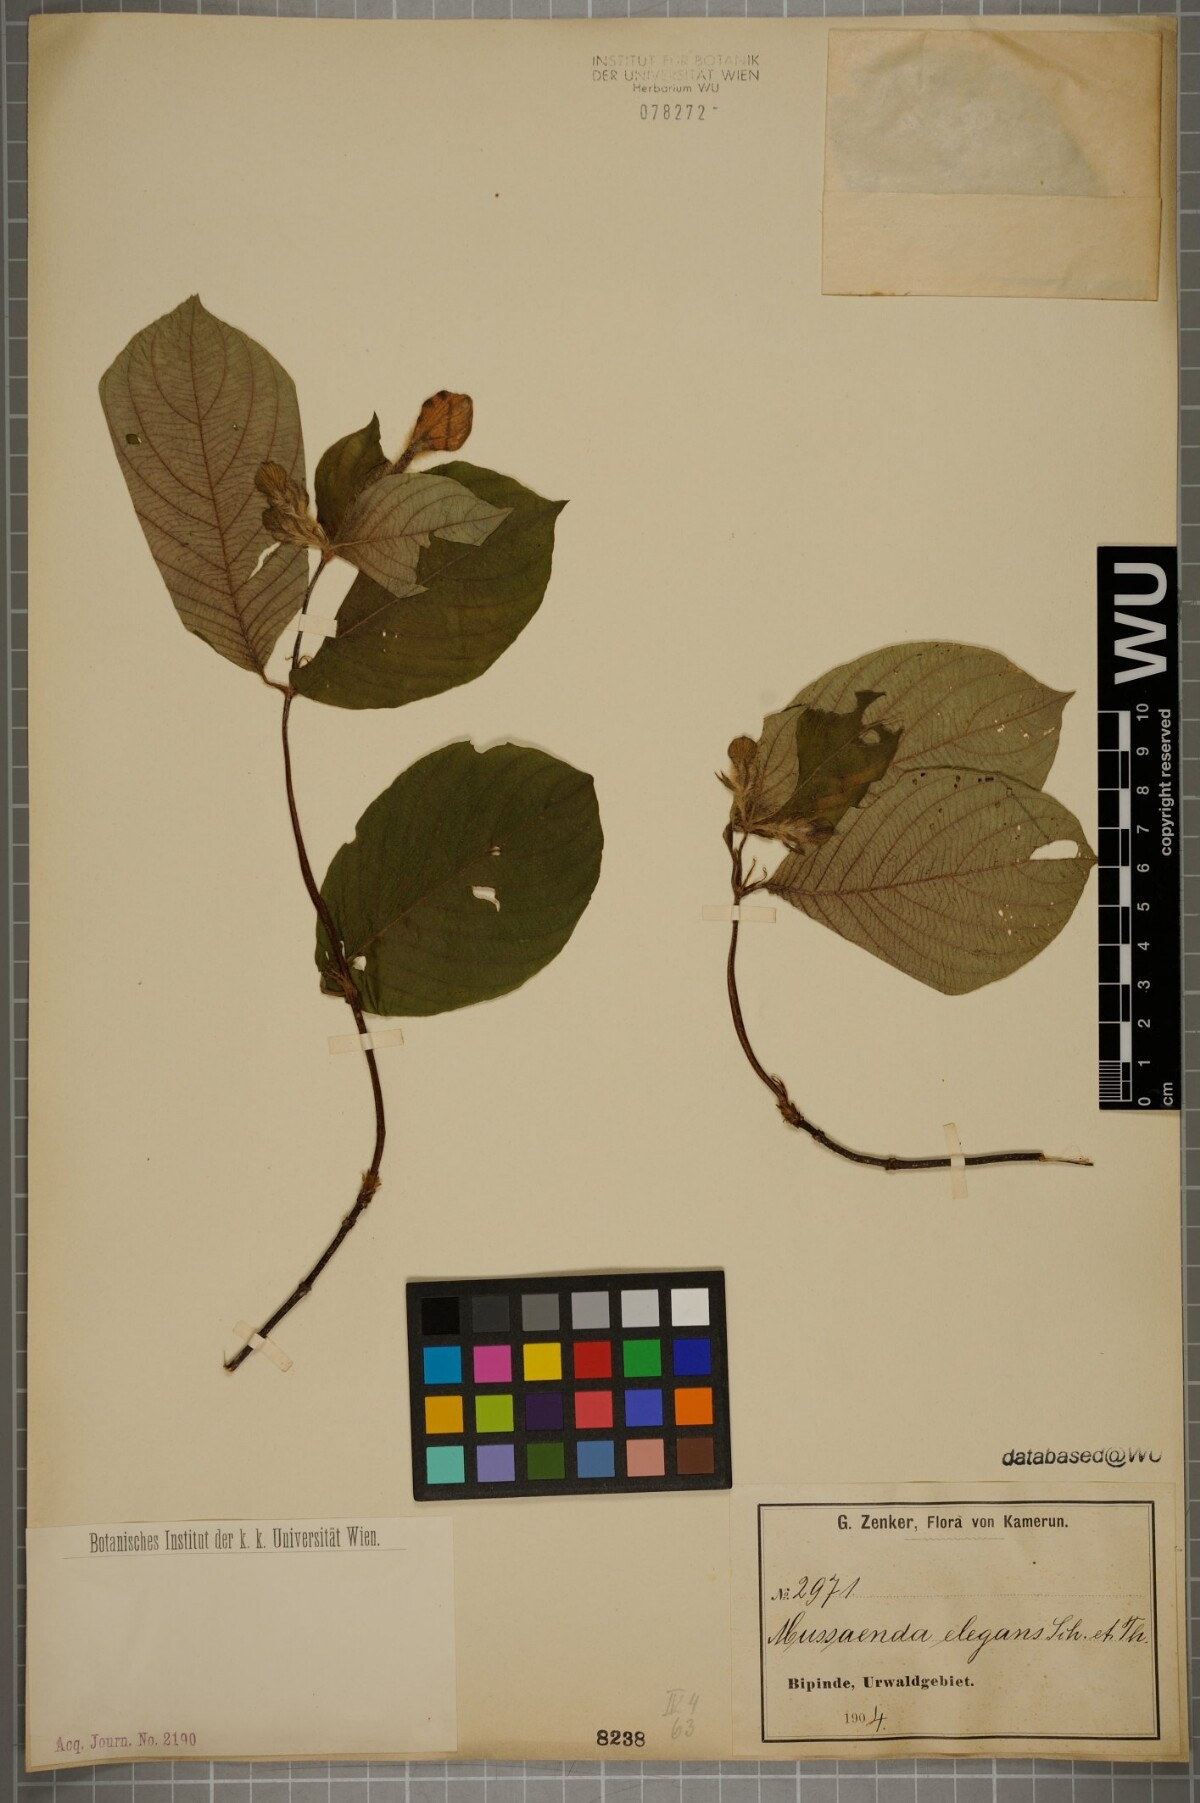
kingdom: Plantae
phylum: Tracheophyta
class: Magnoliopsida
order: Gentianales
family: Rubiaceae
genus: Mussaenda
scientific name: Mussaenda elegans
